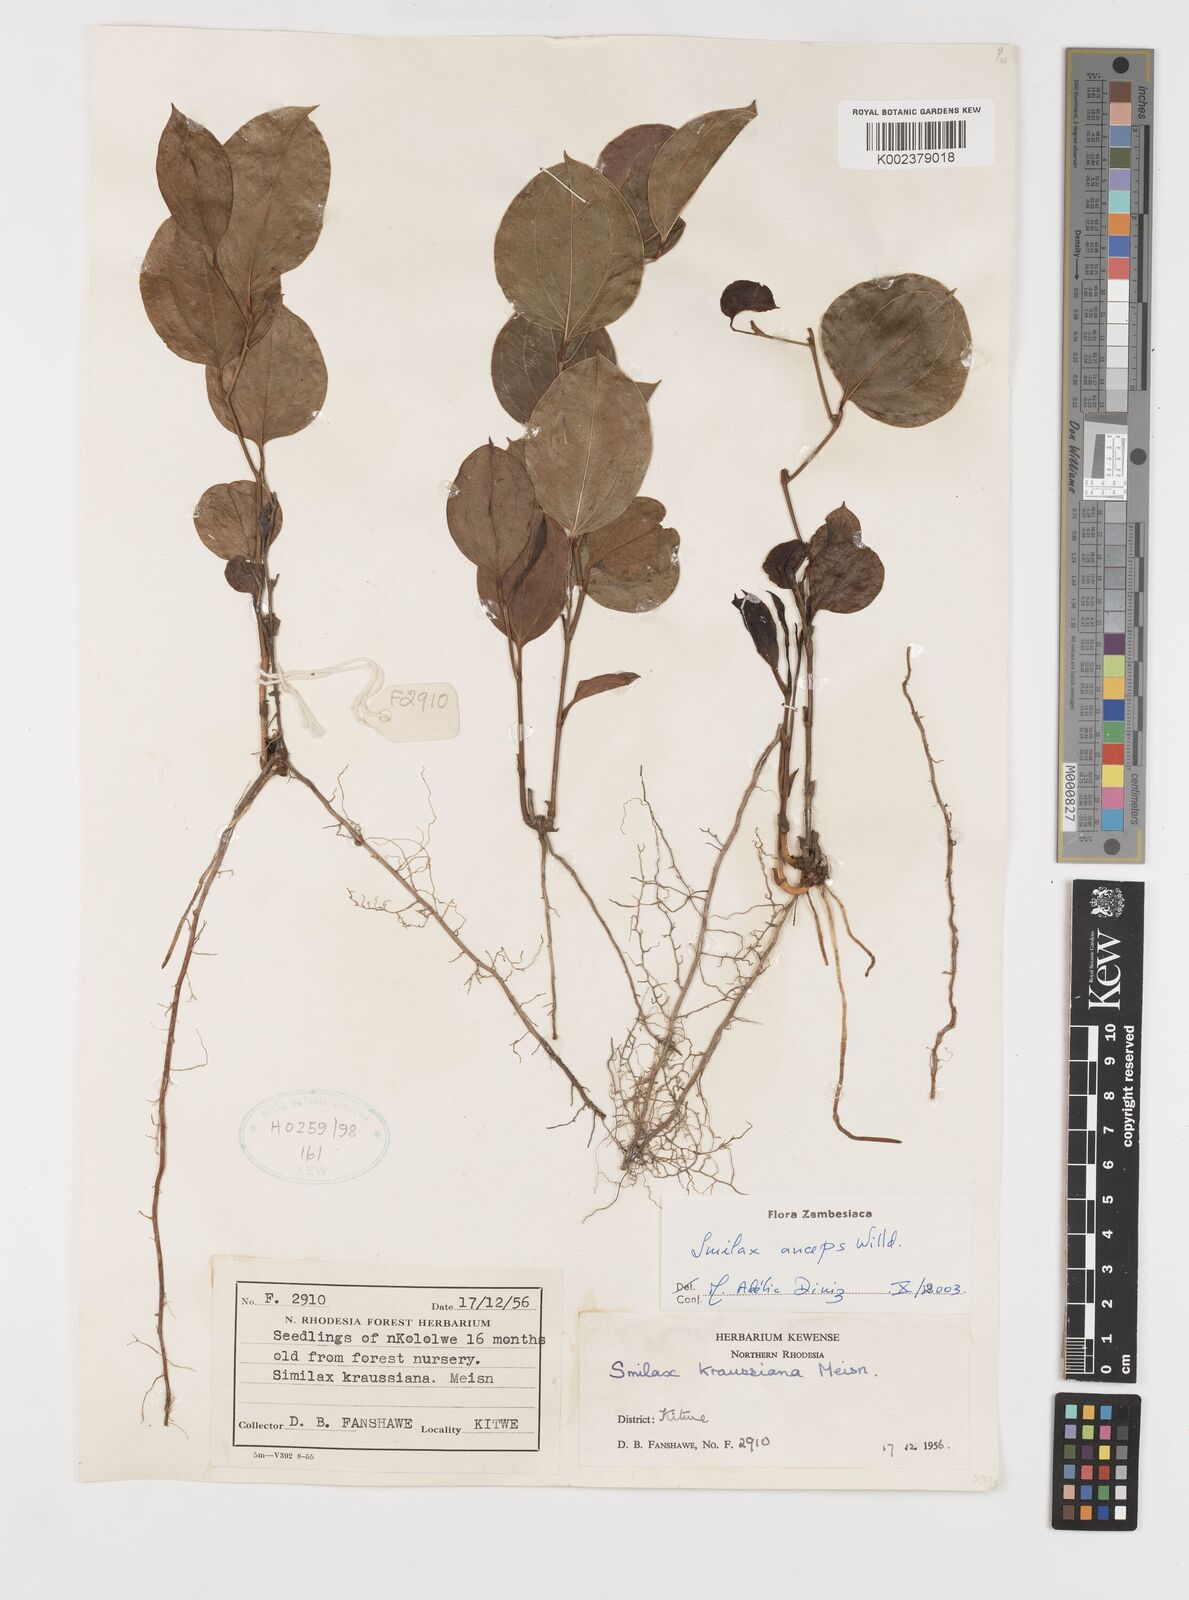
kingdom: Plantae
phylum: Tracheophyta
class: Liliopsida
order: Liliales
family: Smilacaceae
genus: Smilax
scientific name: Smilax anceps
